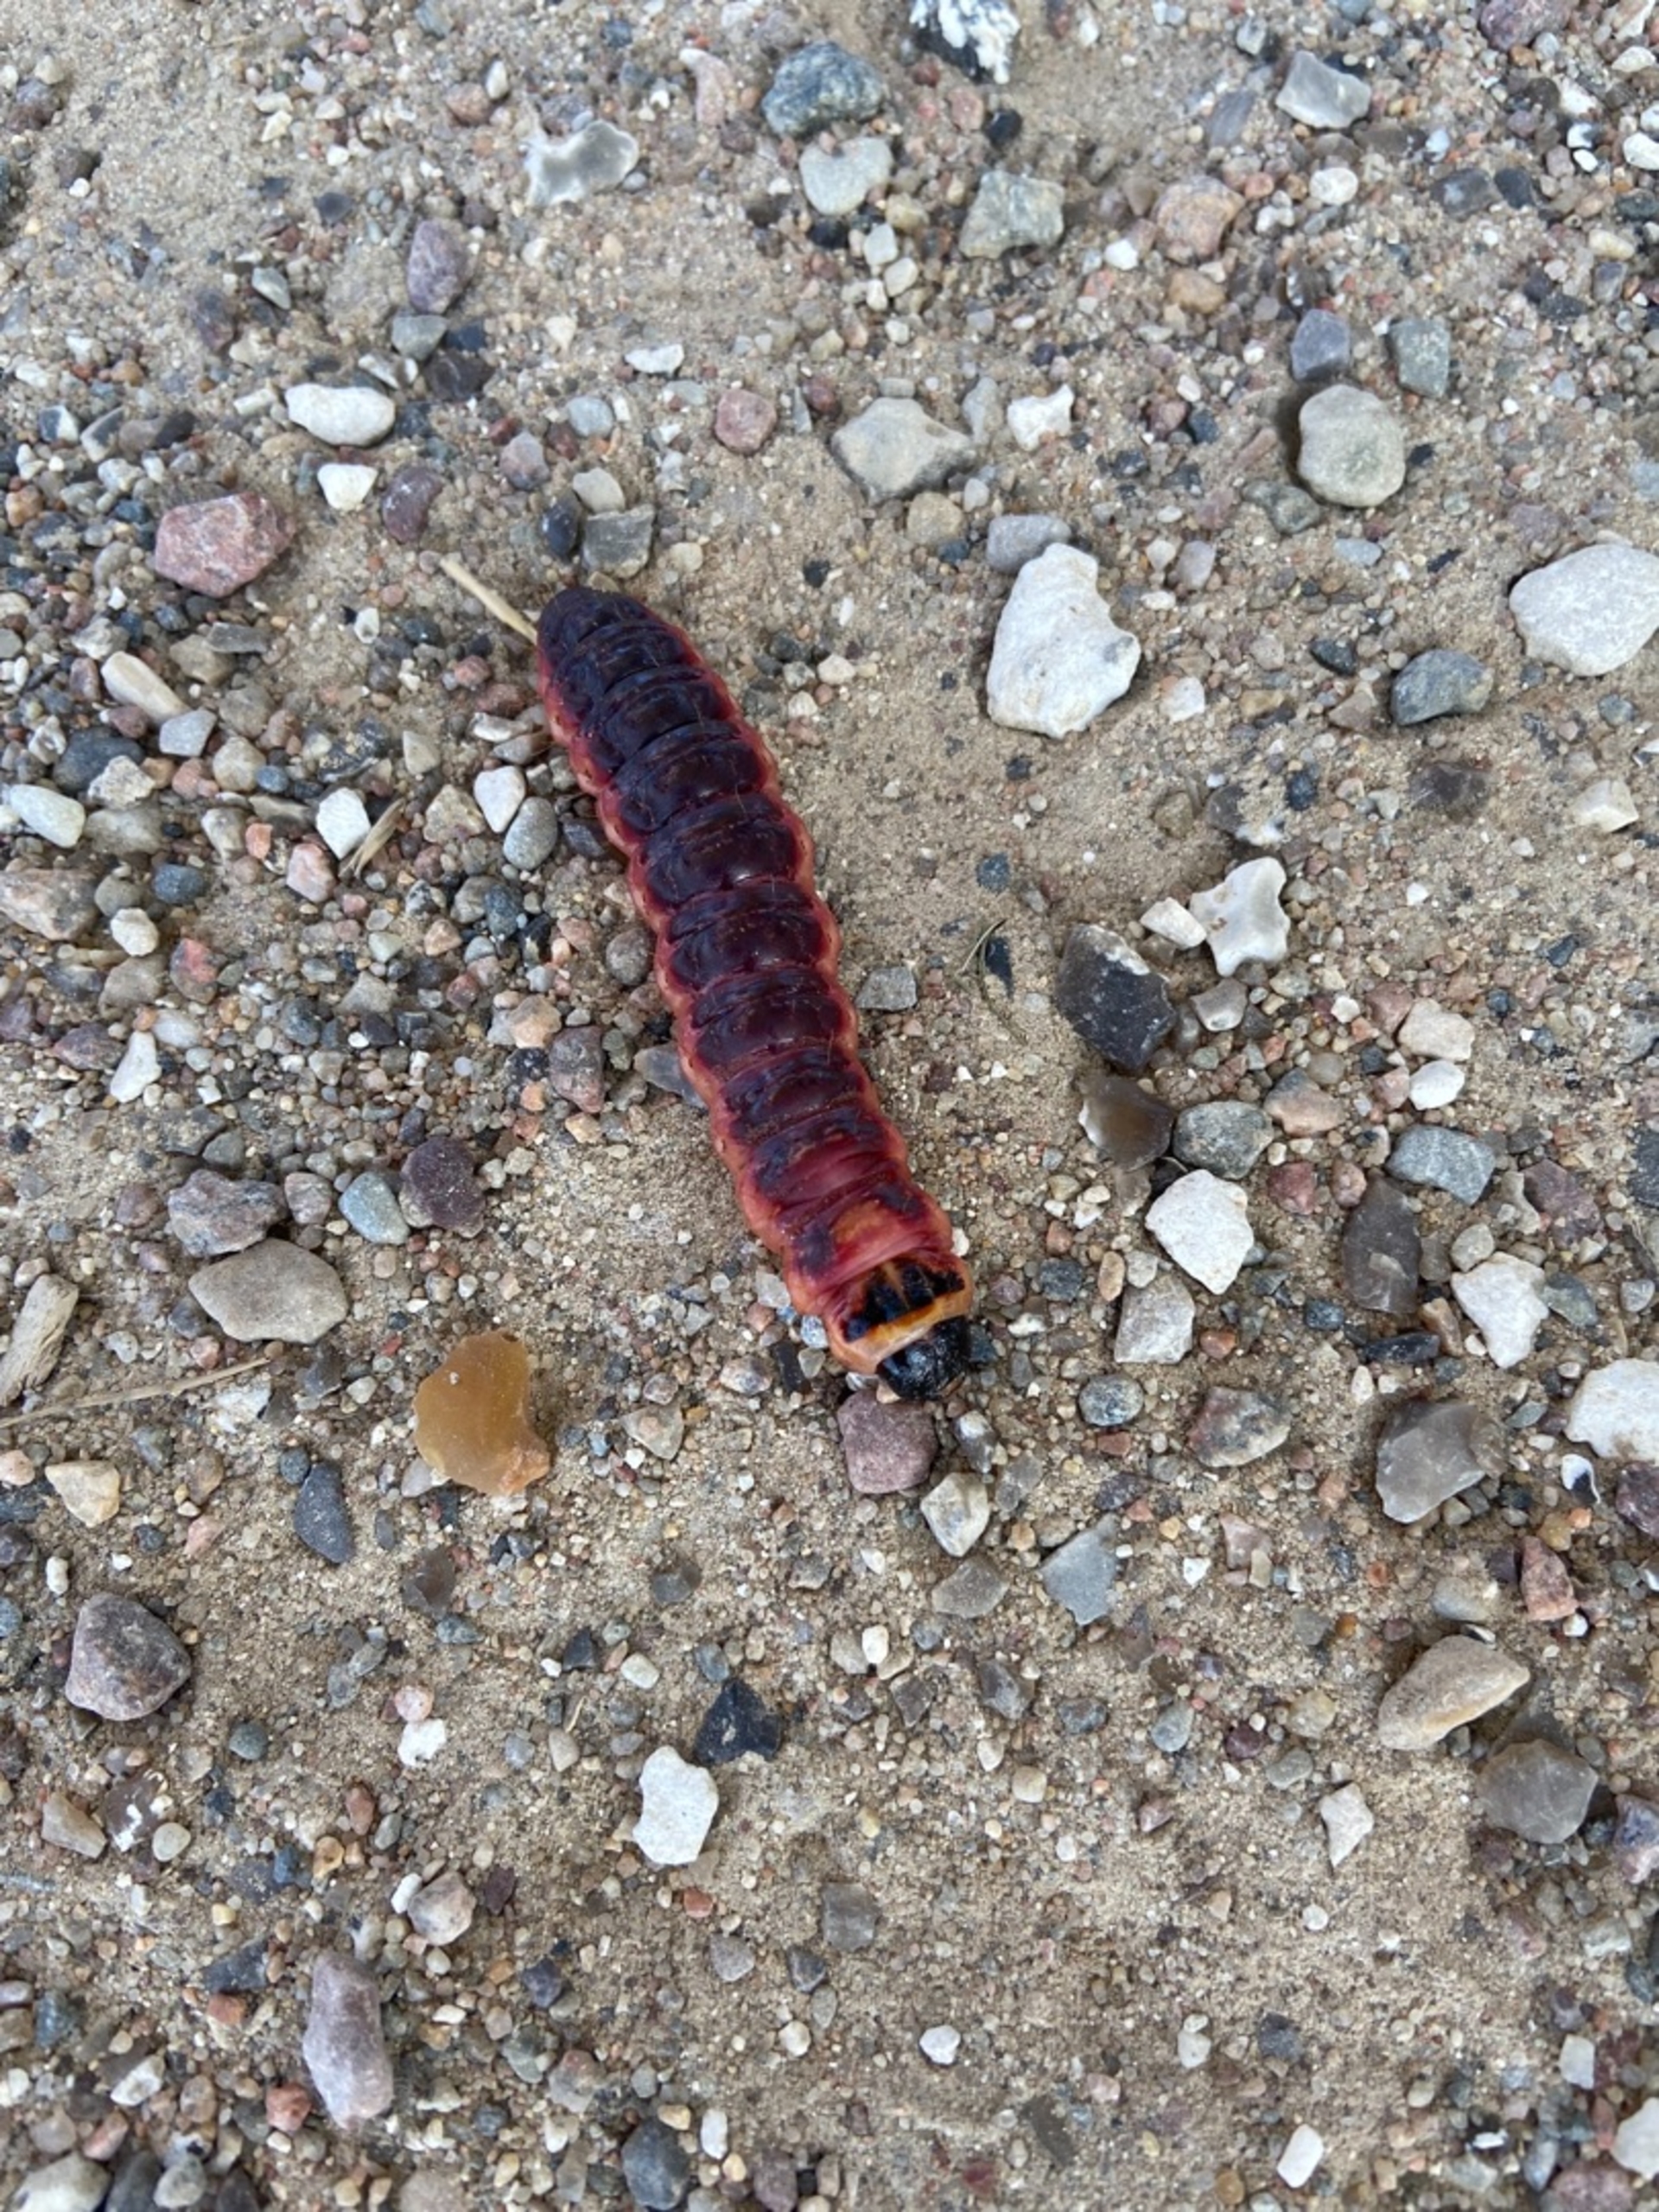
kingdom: Animalia
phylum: Arthropoda
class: Insecta
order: Lepidoptera
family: Cossidae
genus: Cossus
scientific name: Cossus cossus
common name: Pileborer
